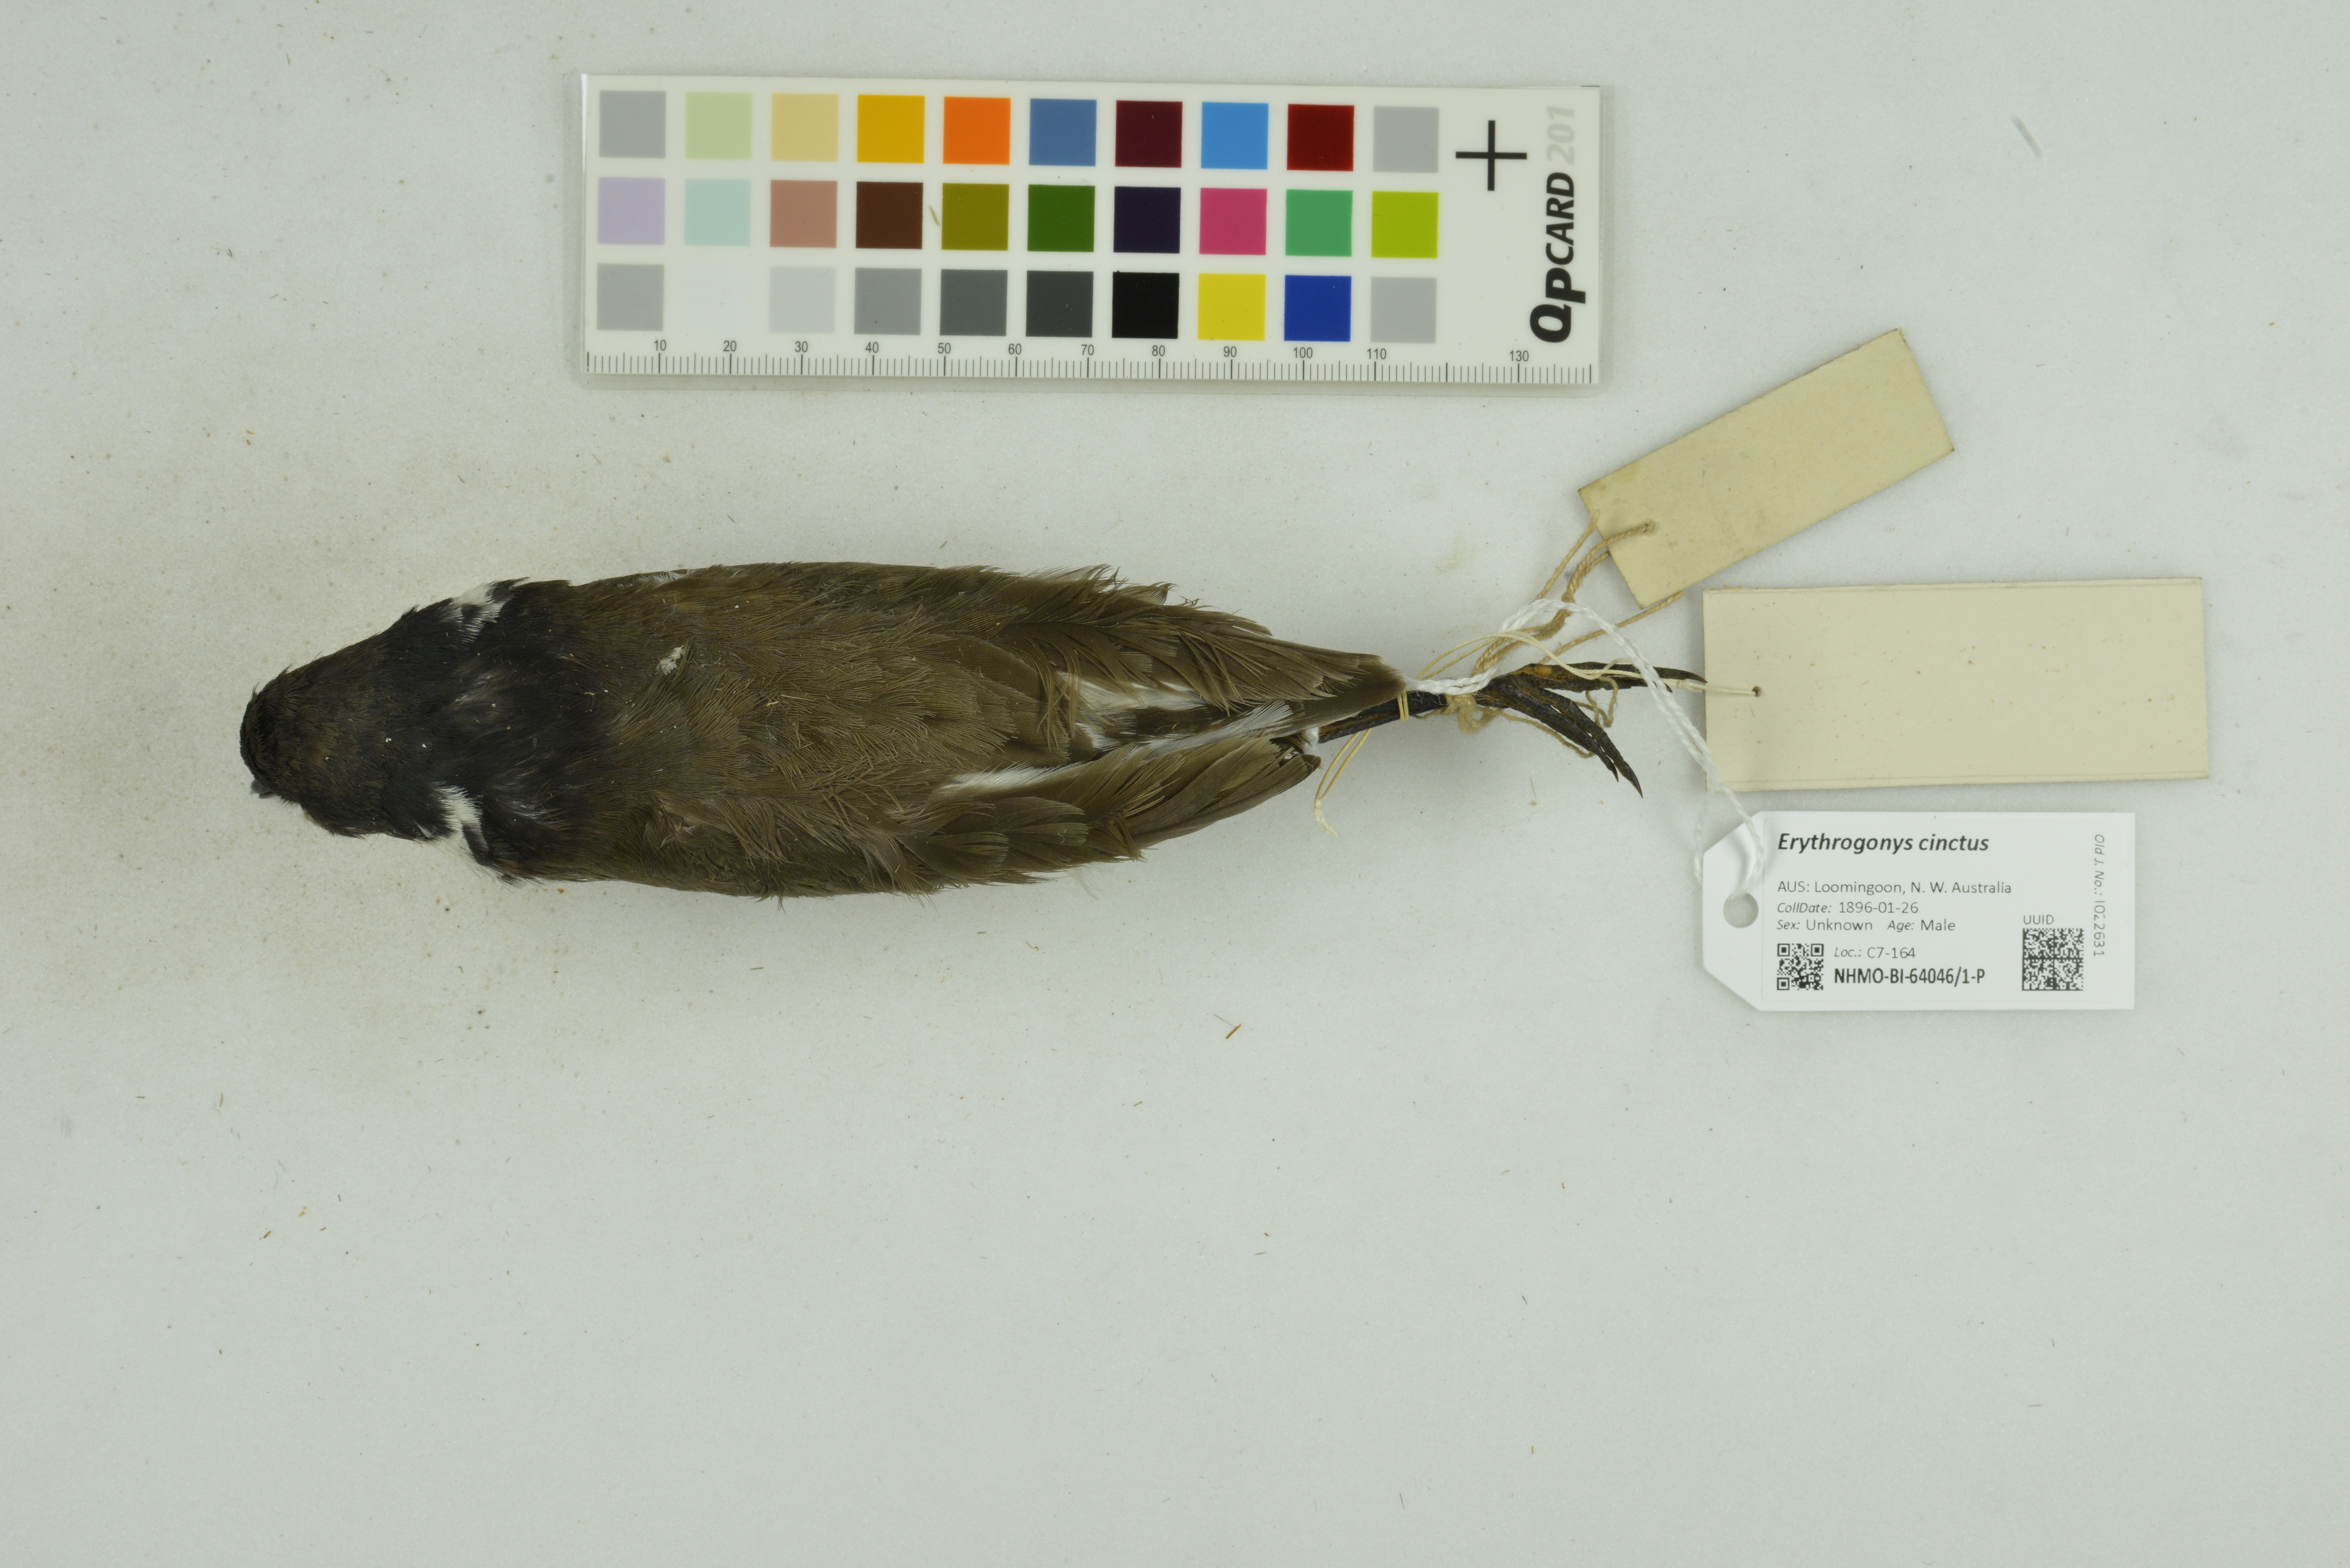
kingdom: Animalia
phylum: Chordata
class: Aves
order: Charadriiformes
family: Charadriidae
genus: Erythrogonys
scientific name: Erythrogonys cinctus
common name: Red-kneed dotterel
